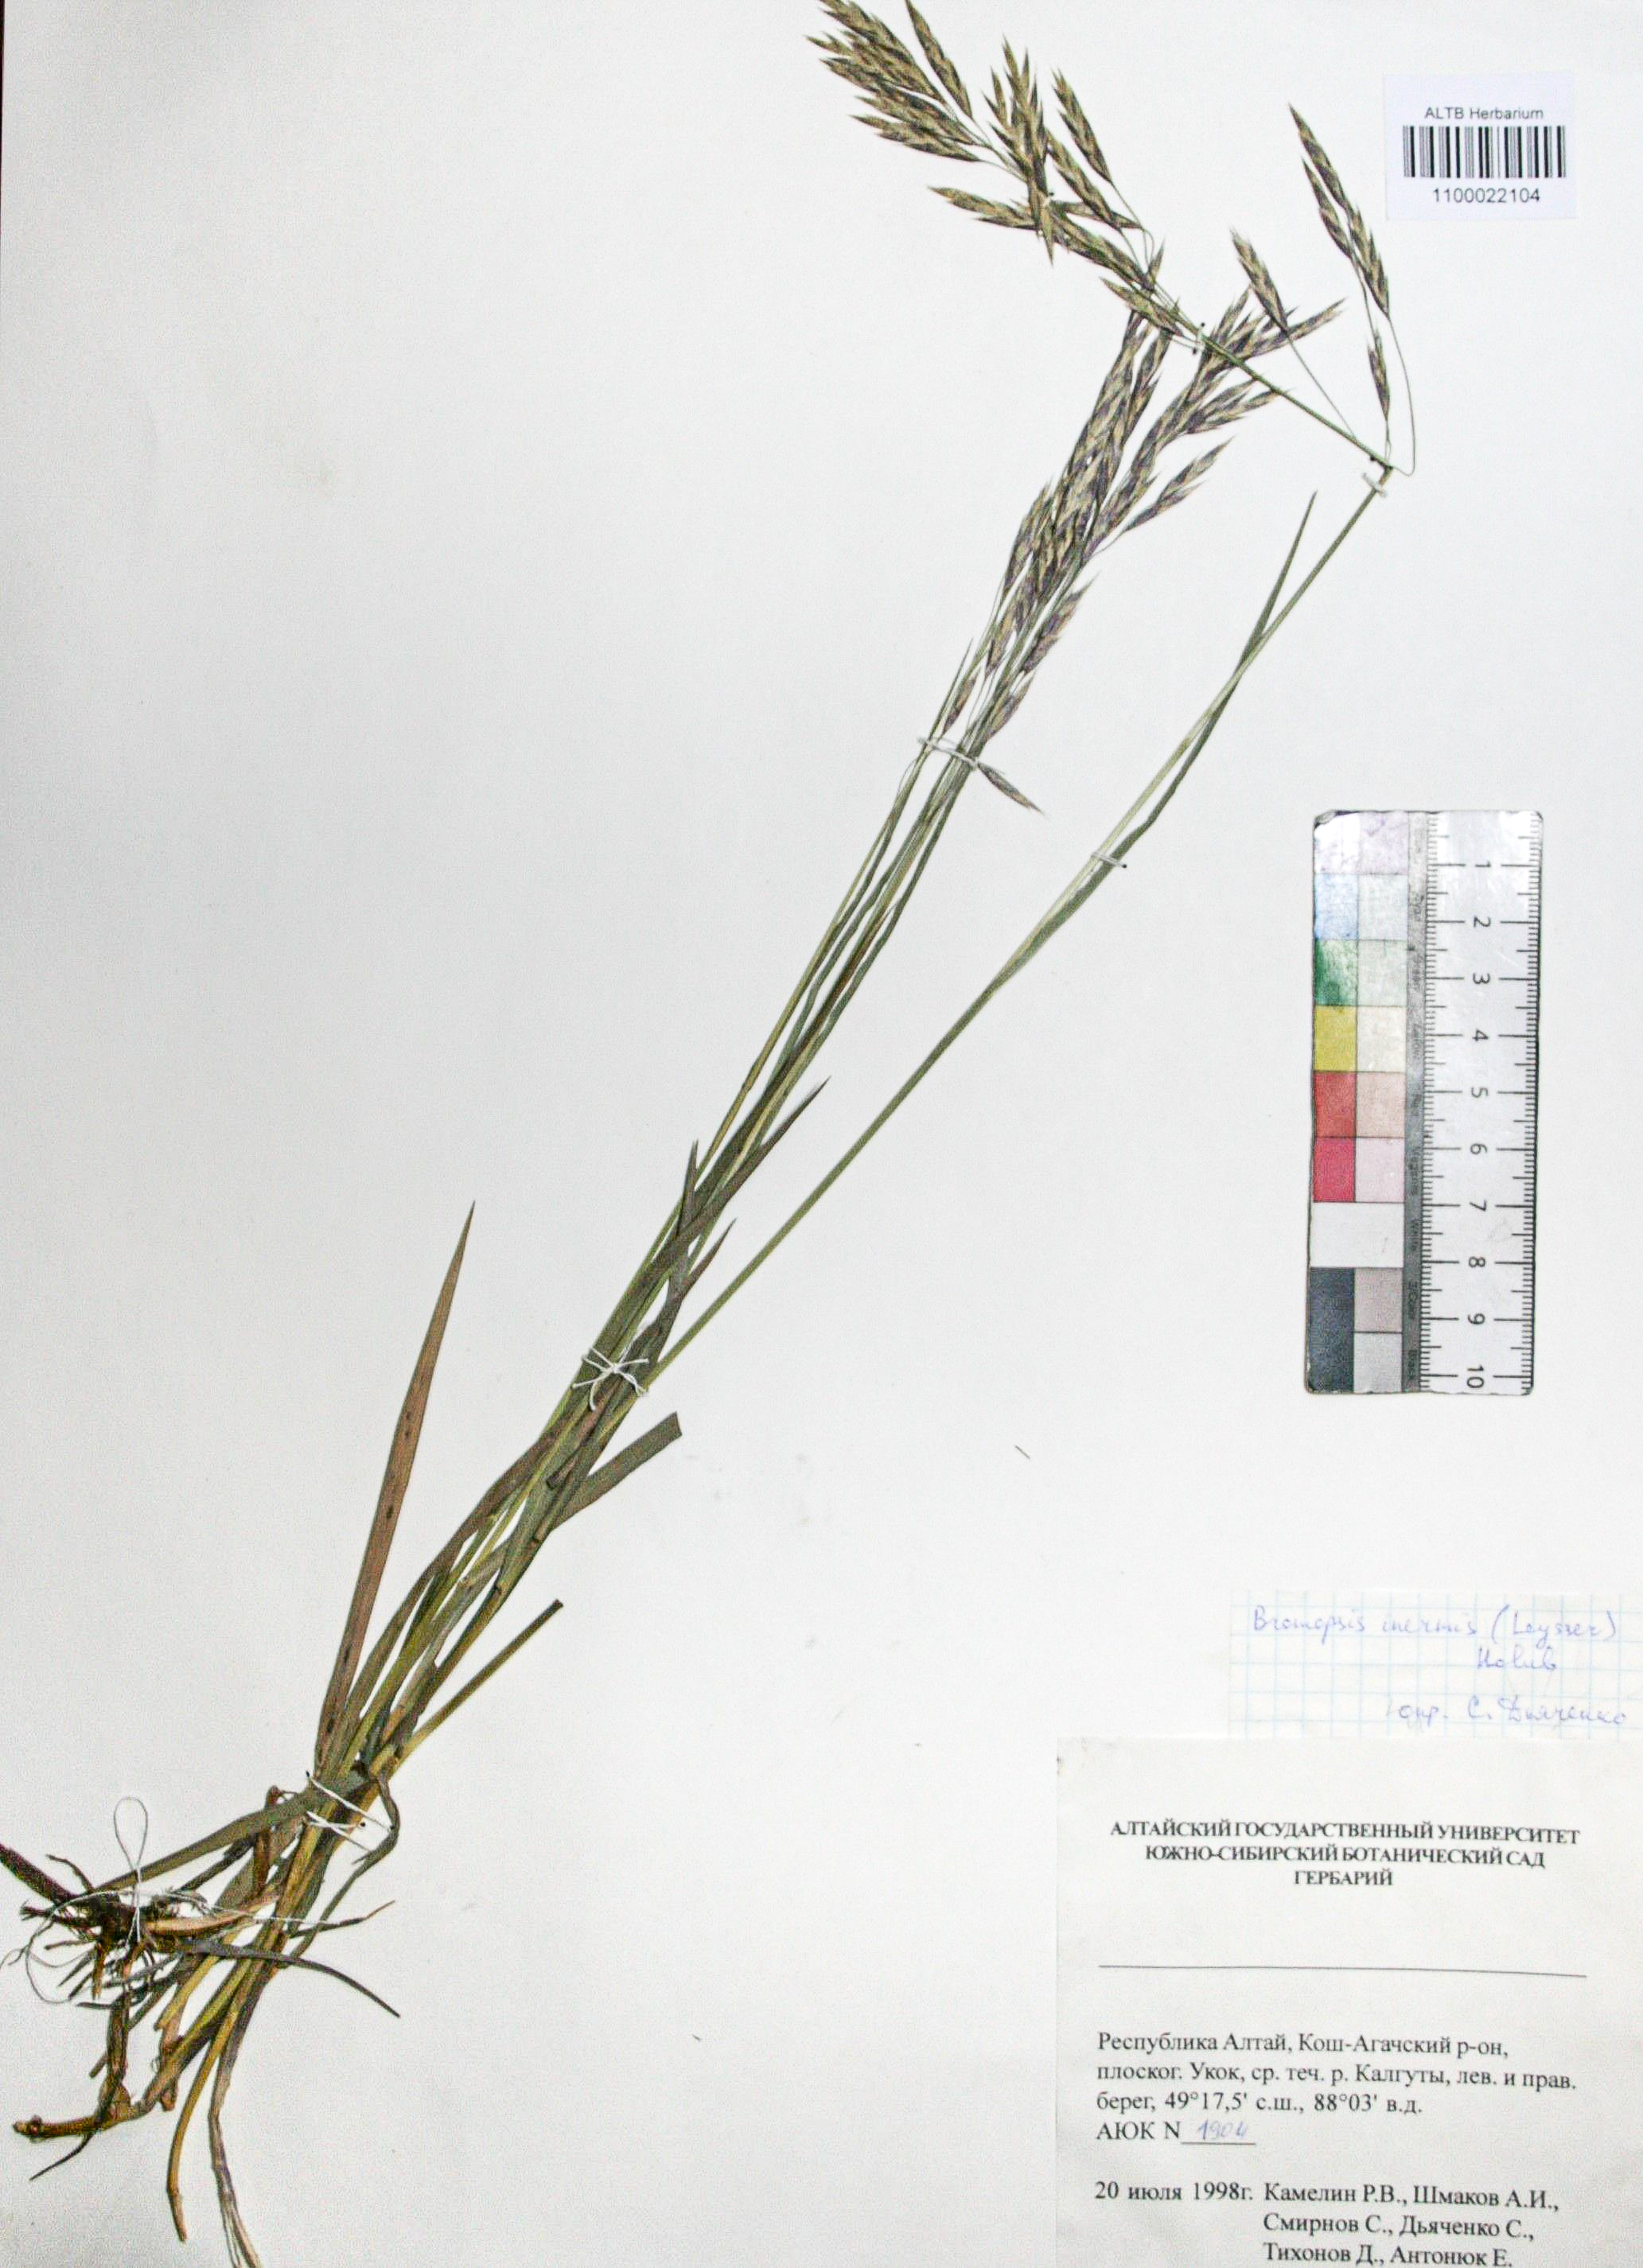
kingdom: Plantae
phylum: Tracheophyta
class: Liliopsida
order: Poales
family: Poaceae
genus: Bromus
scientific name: Bromus inermis
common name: Smooth brome
